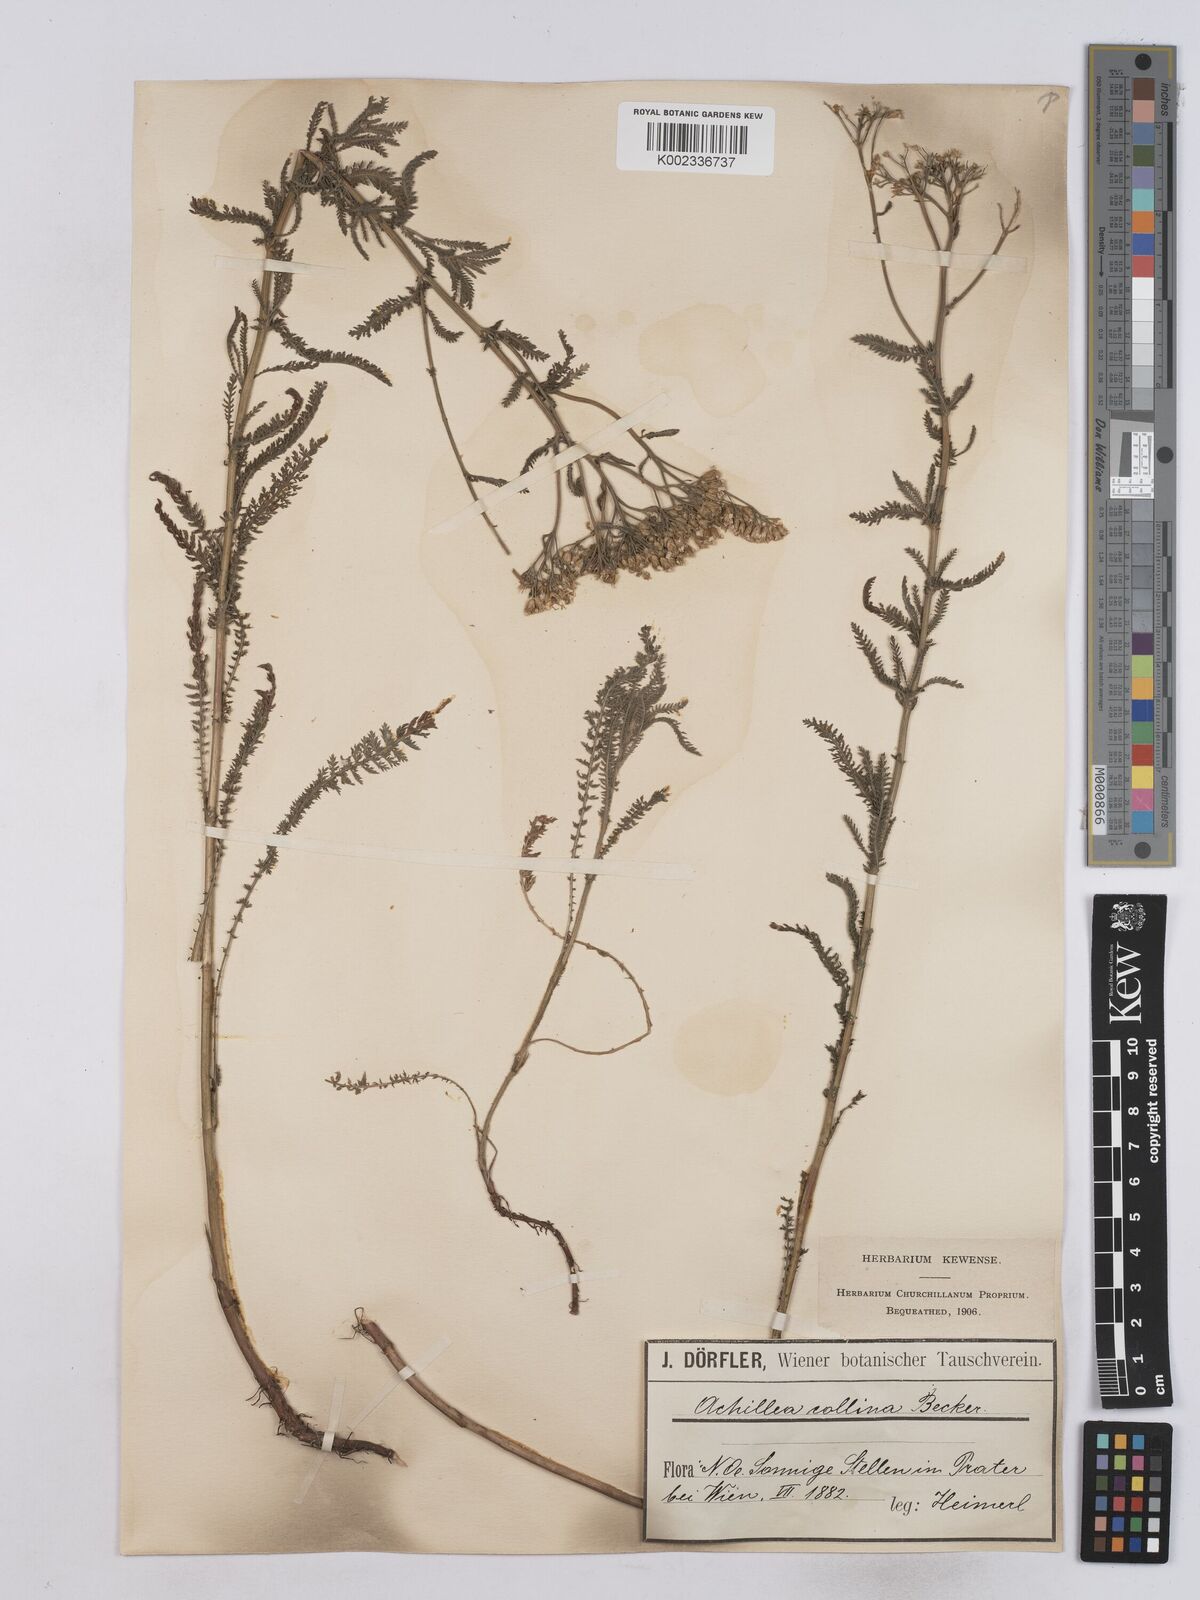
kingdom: Plantae
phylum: Tracheophyta
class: Magnoliopsida
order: Asterales
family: Asteraceae
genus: Achillea
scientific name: Achillea collina
